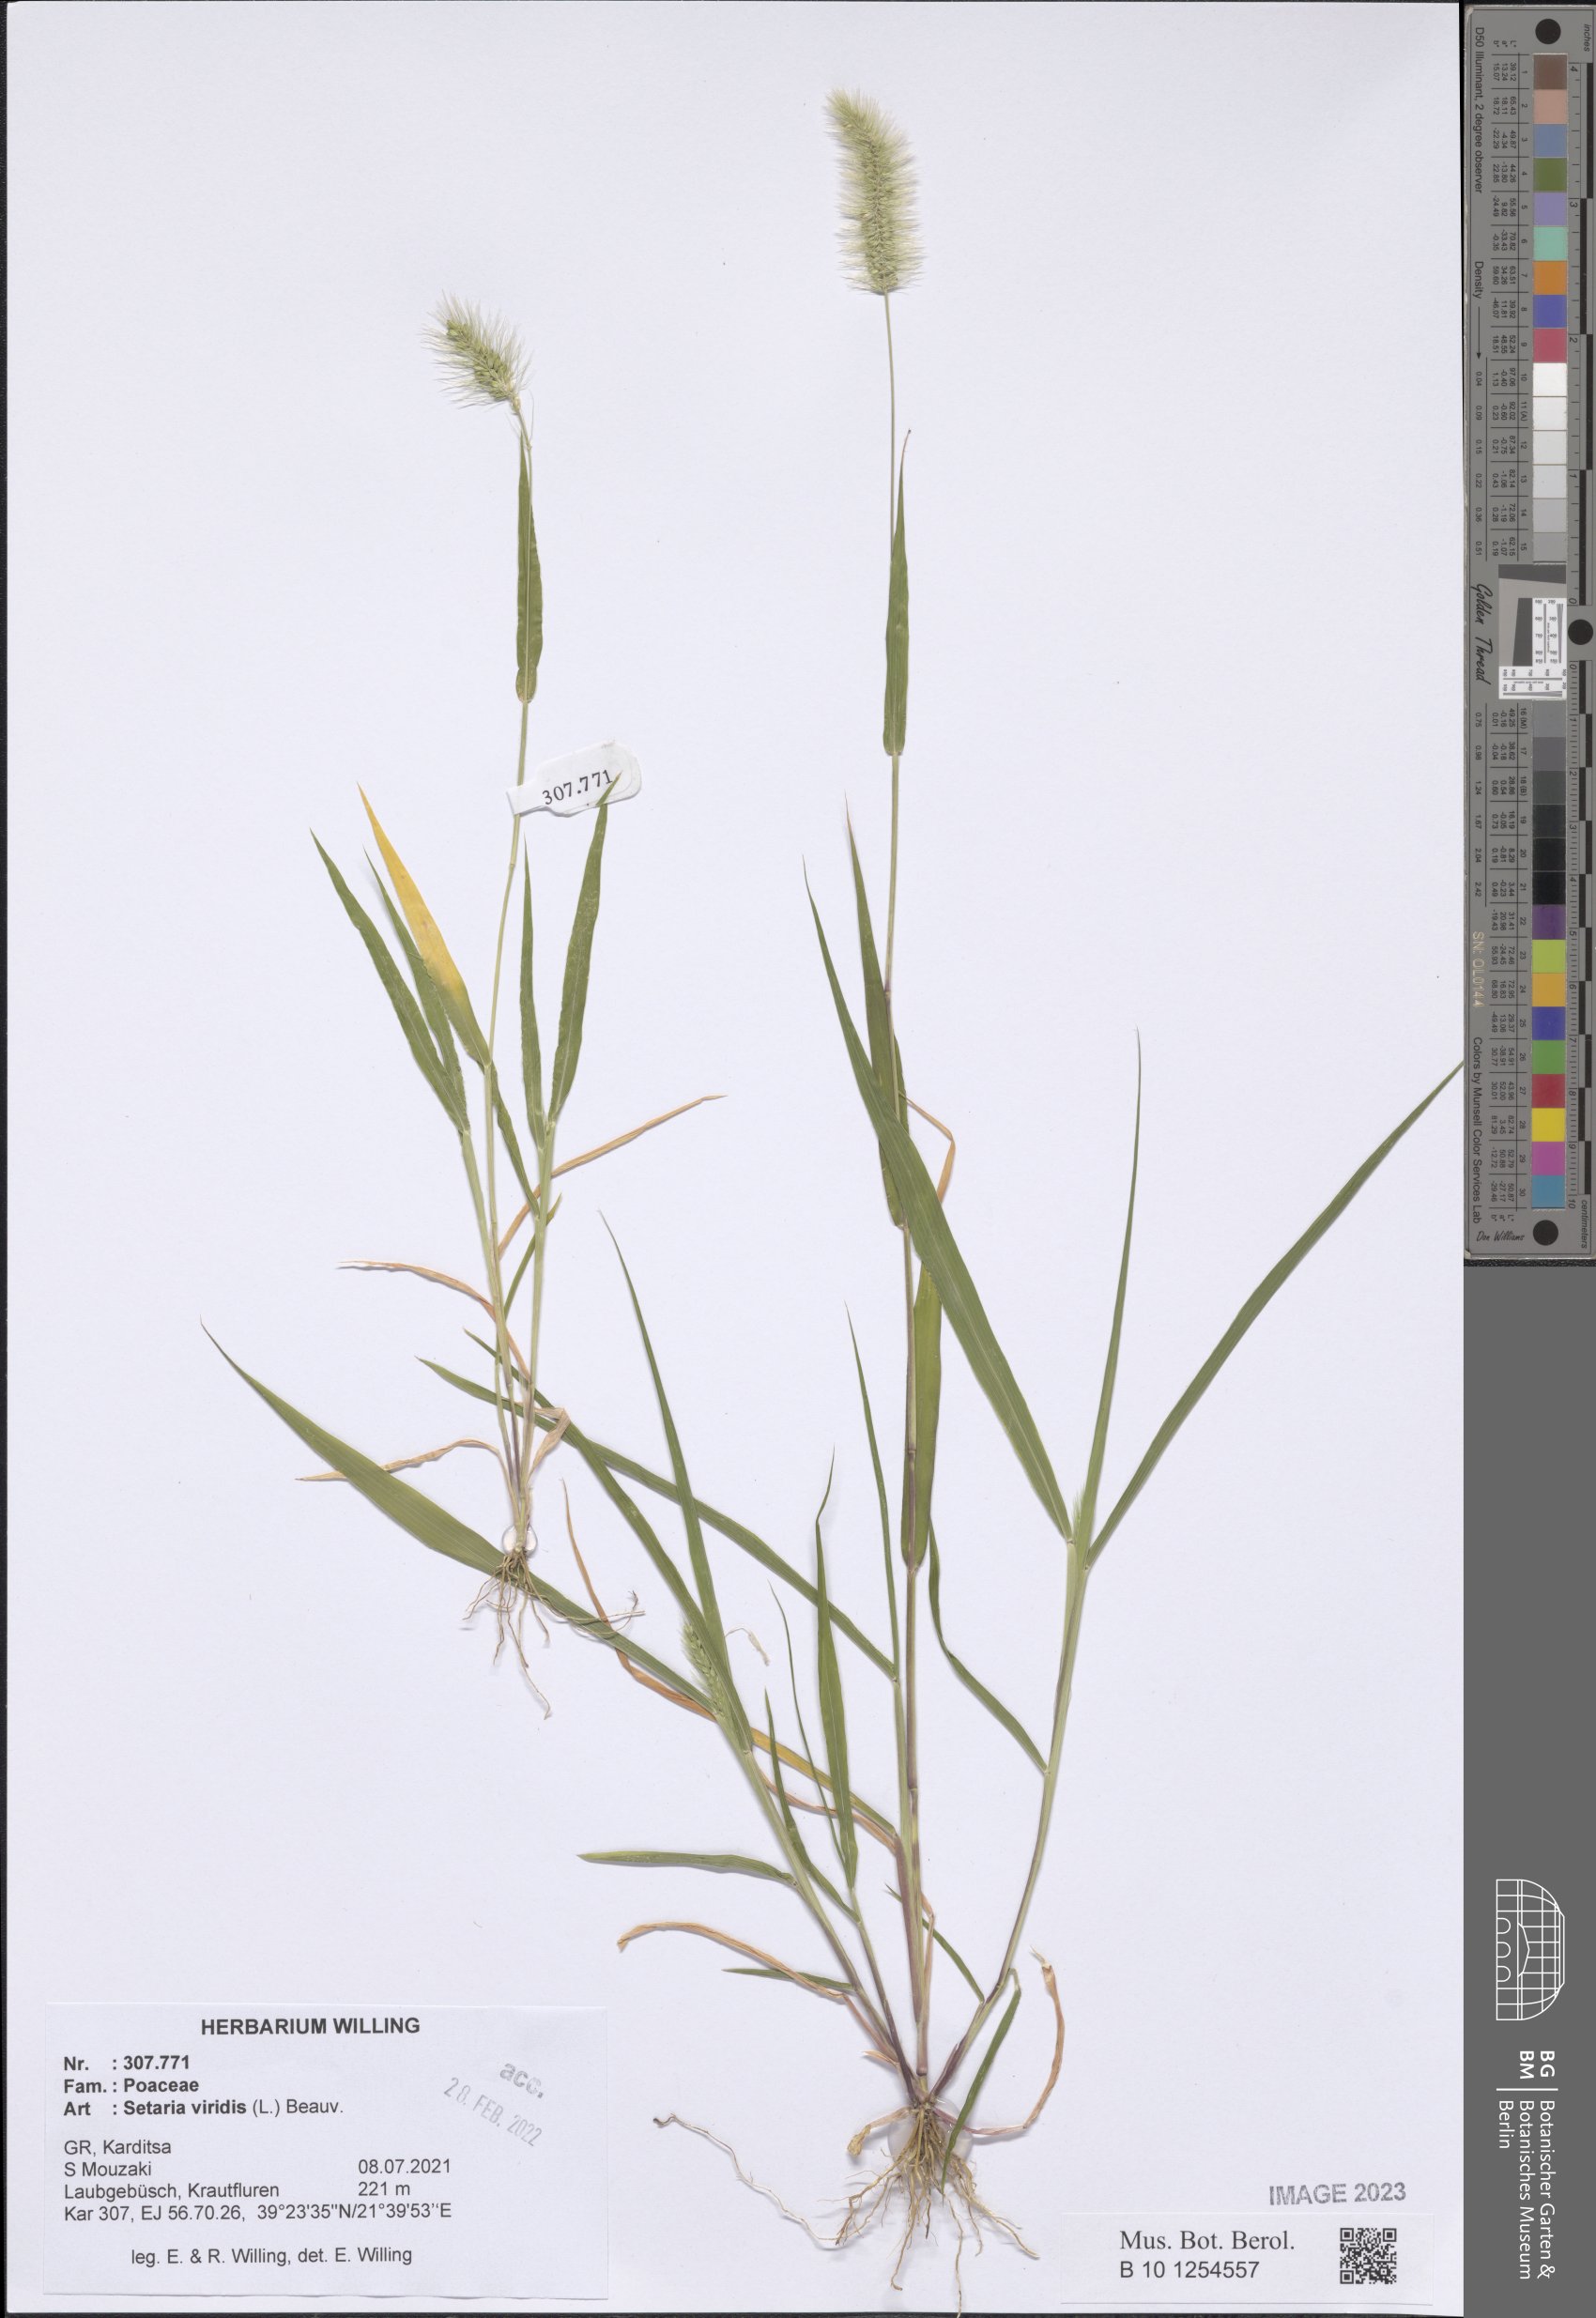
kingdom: Plantae
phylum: Tracheophyta
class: Liliopsida
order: Poales
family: Poaceae
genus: Setaria
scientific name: Setaria viridis
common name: Green bristlegrass
